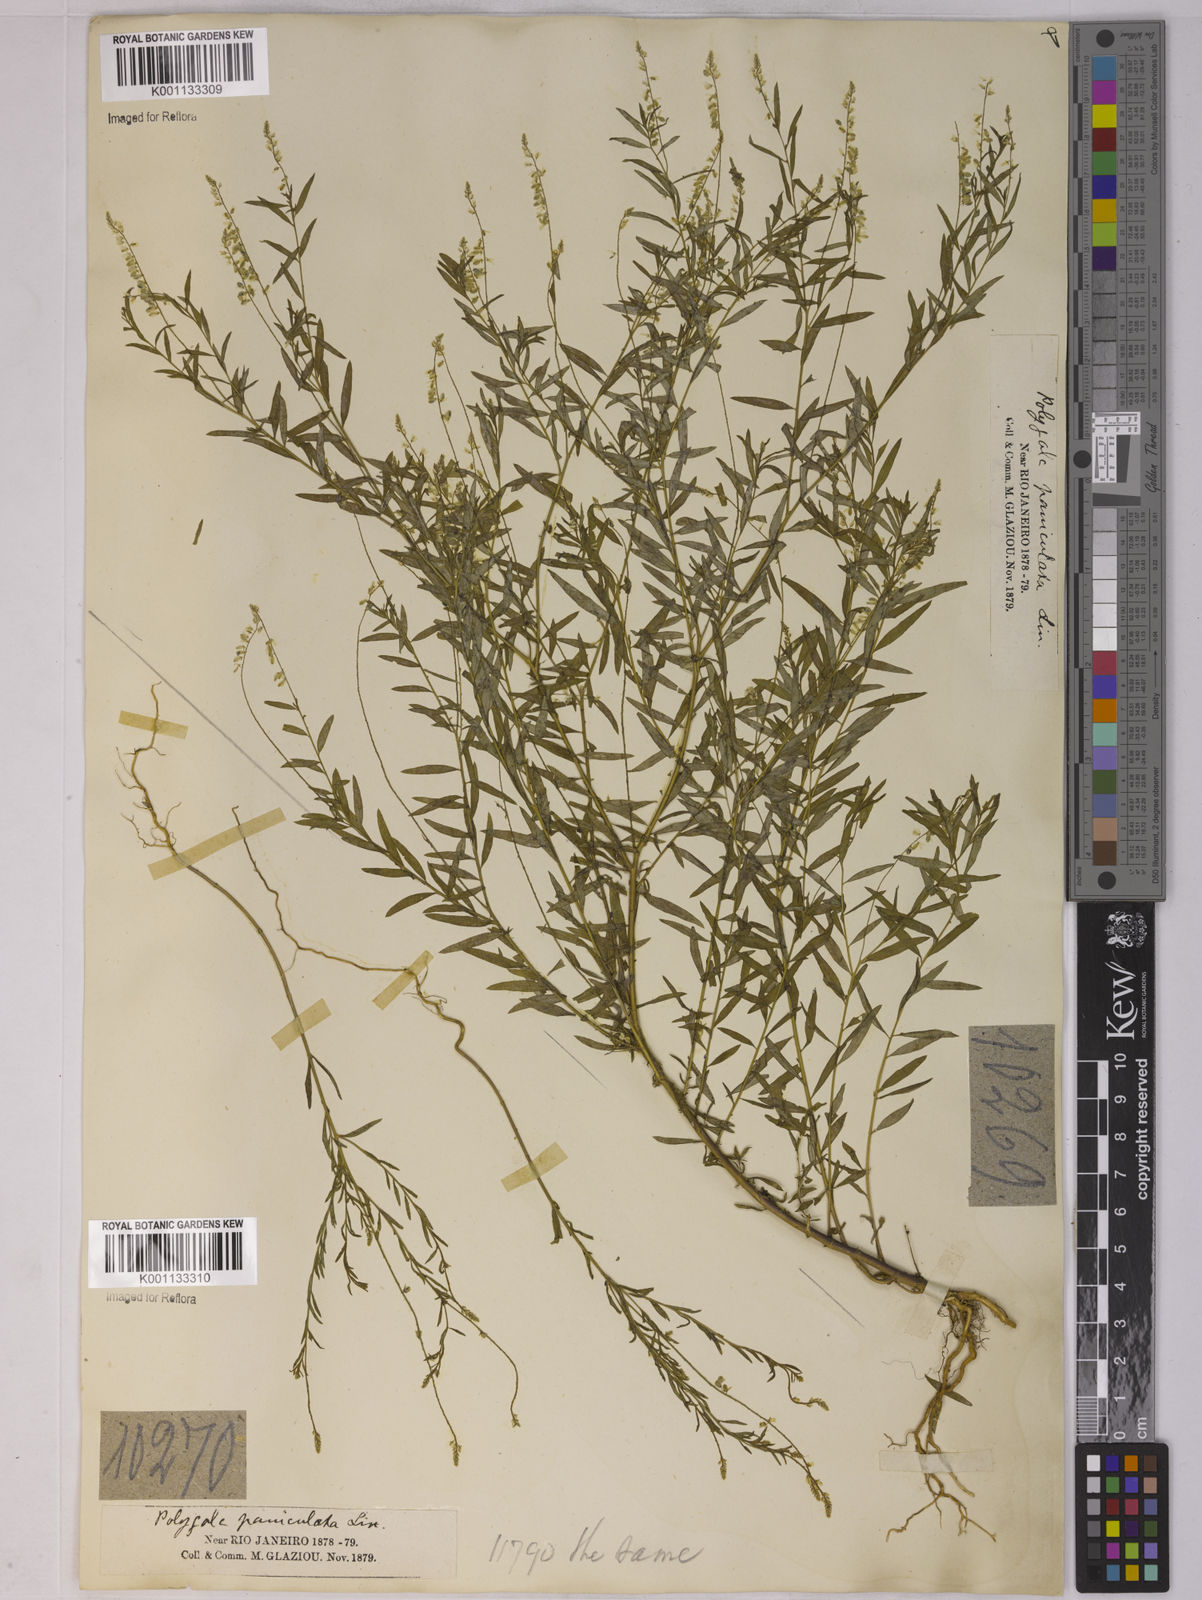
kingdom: Plantae
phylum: Tracheophyta
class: Magnoliopsida
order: Fabales
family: Polygalaceae
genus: Polygala
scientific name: Polygala paniculata
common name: Orosne
